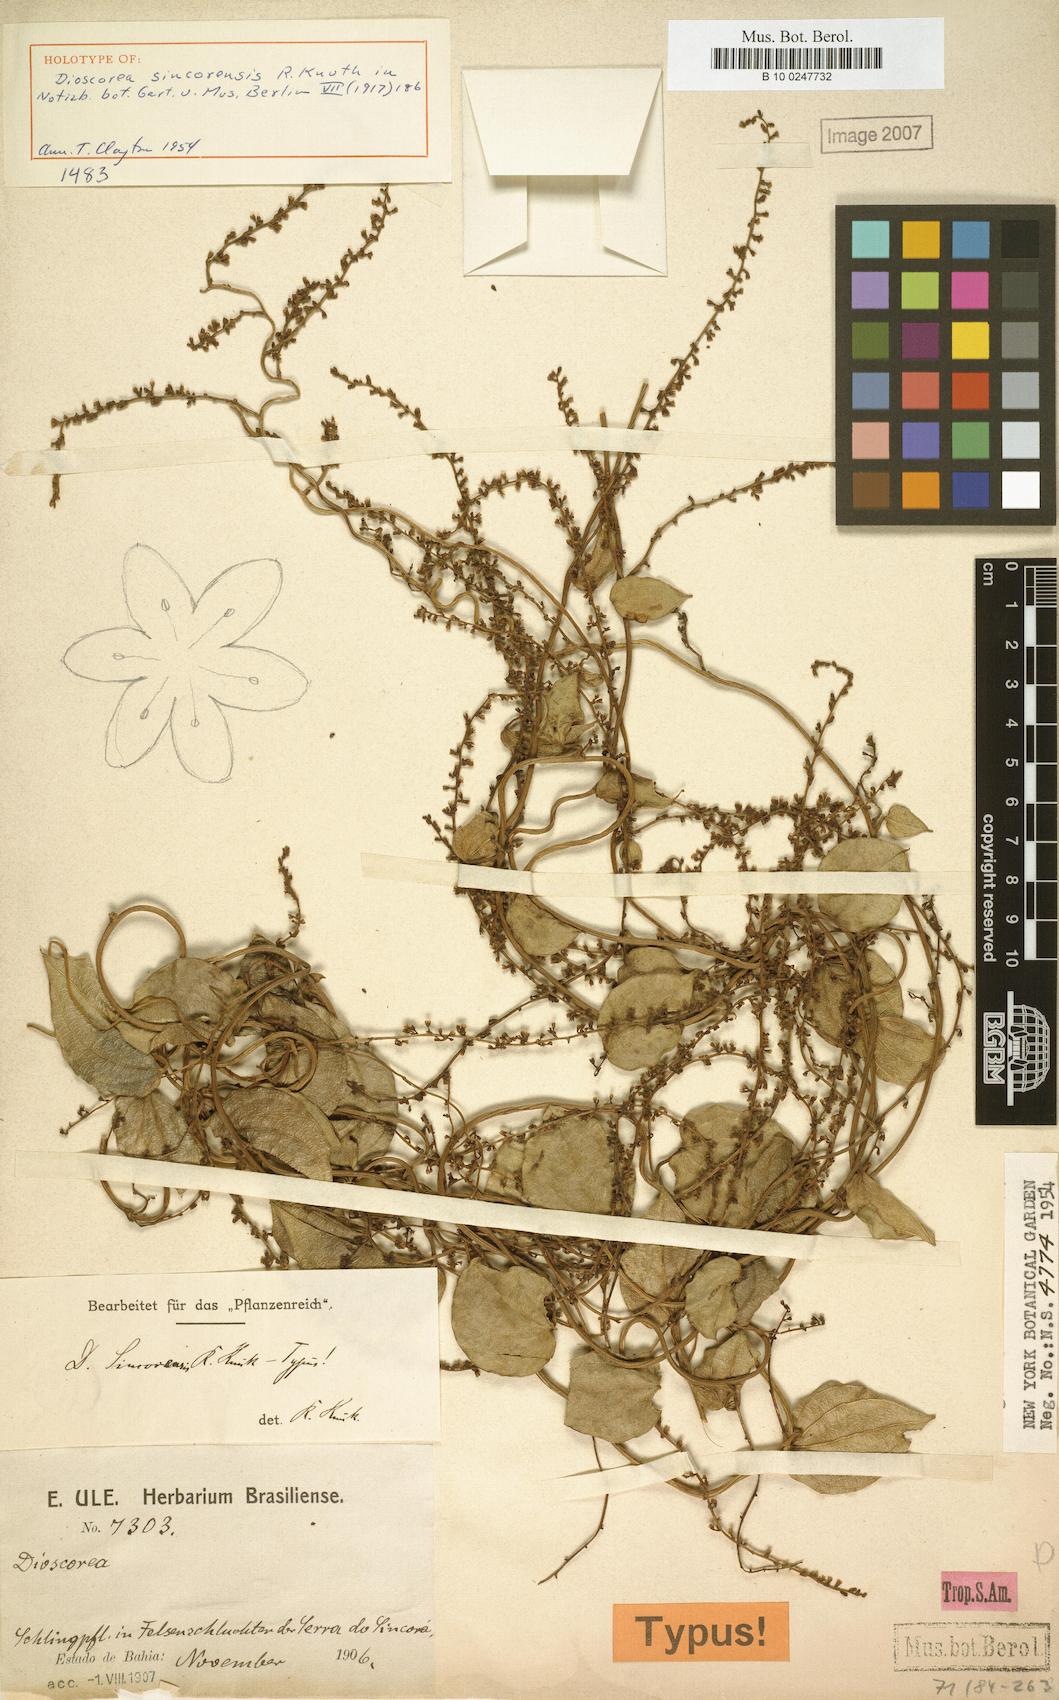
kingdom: Plantae
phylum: Tracheophyta
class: Liliopsida
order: Dioscoreales
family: Dioscoreaceae
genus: Dioscorea
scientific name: Dioscorea sincorensis
